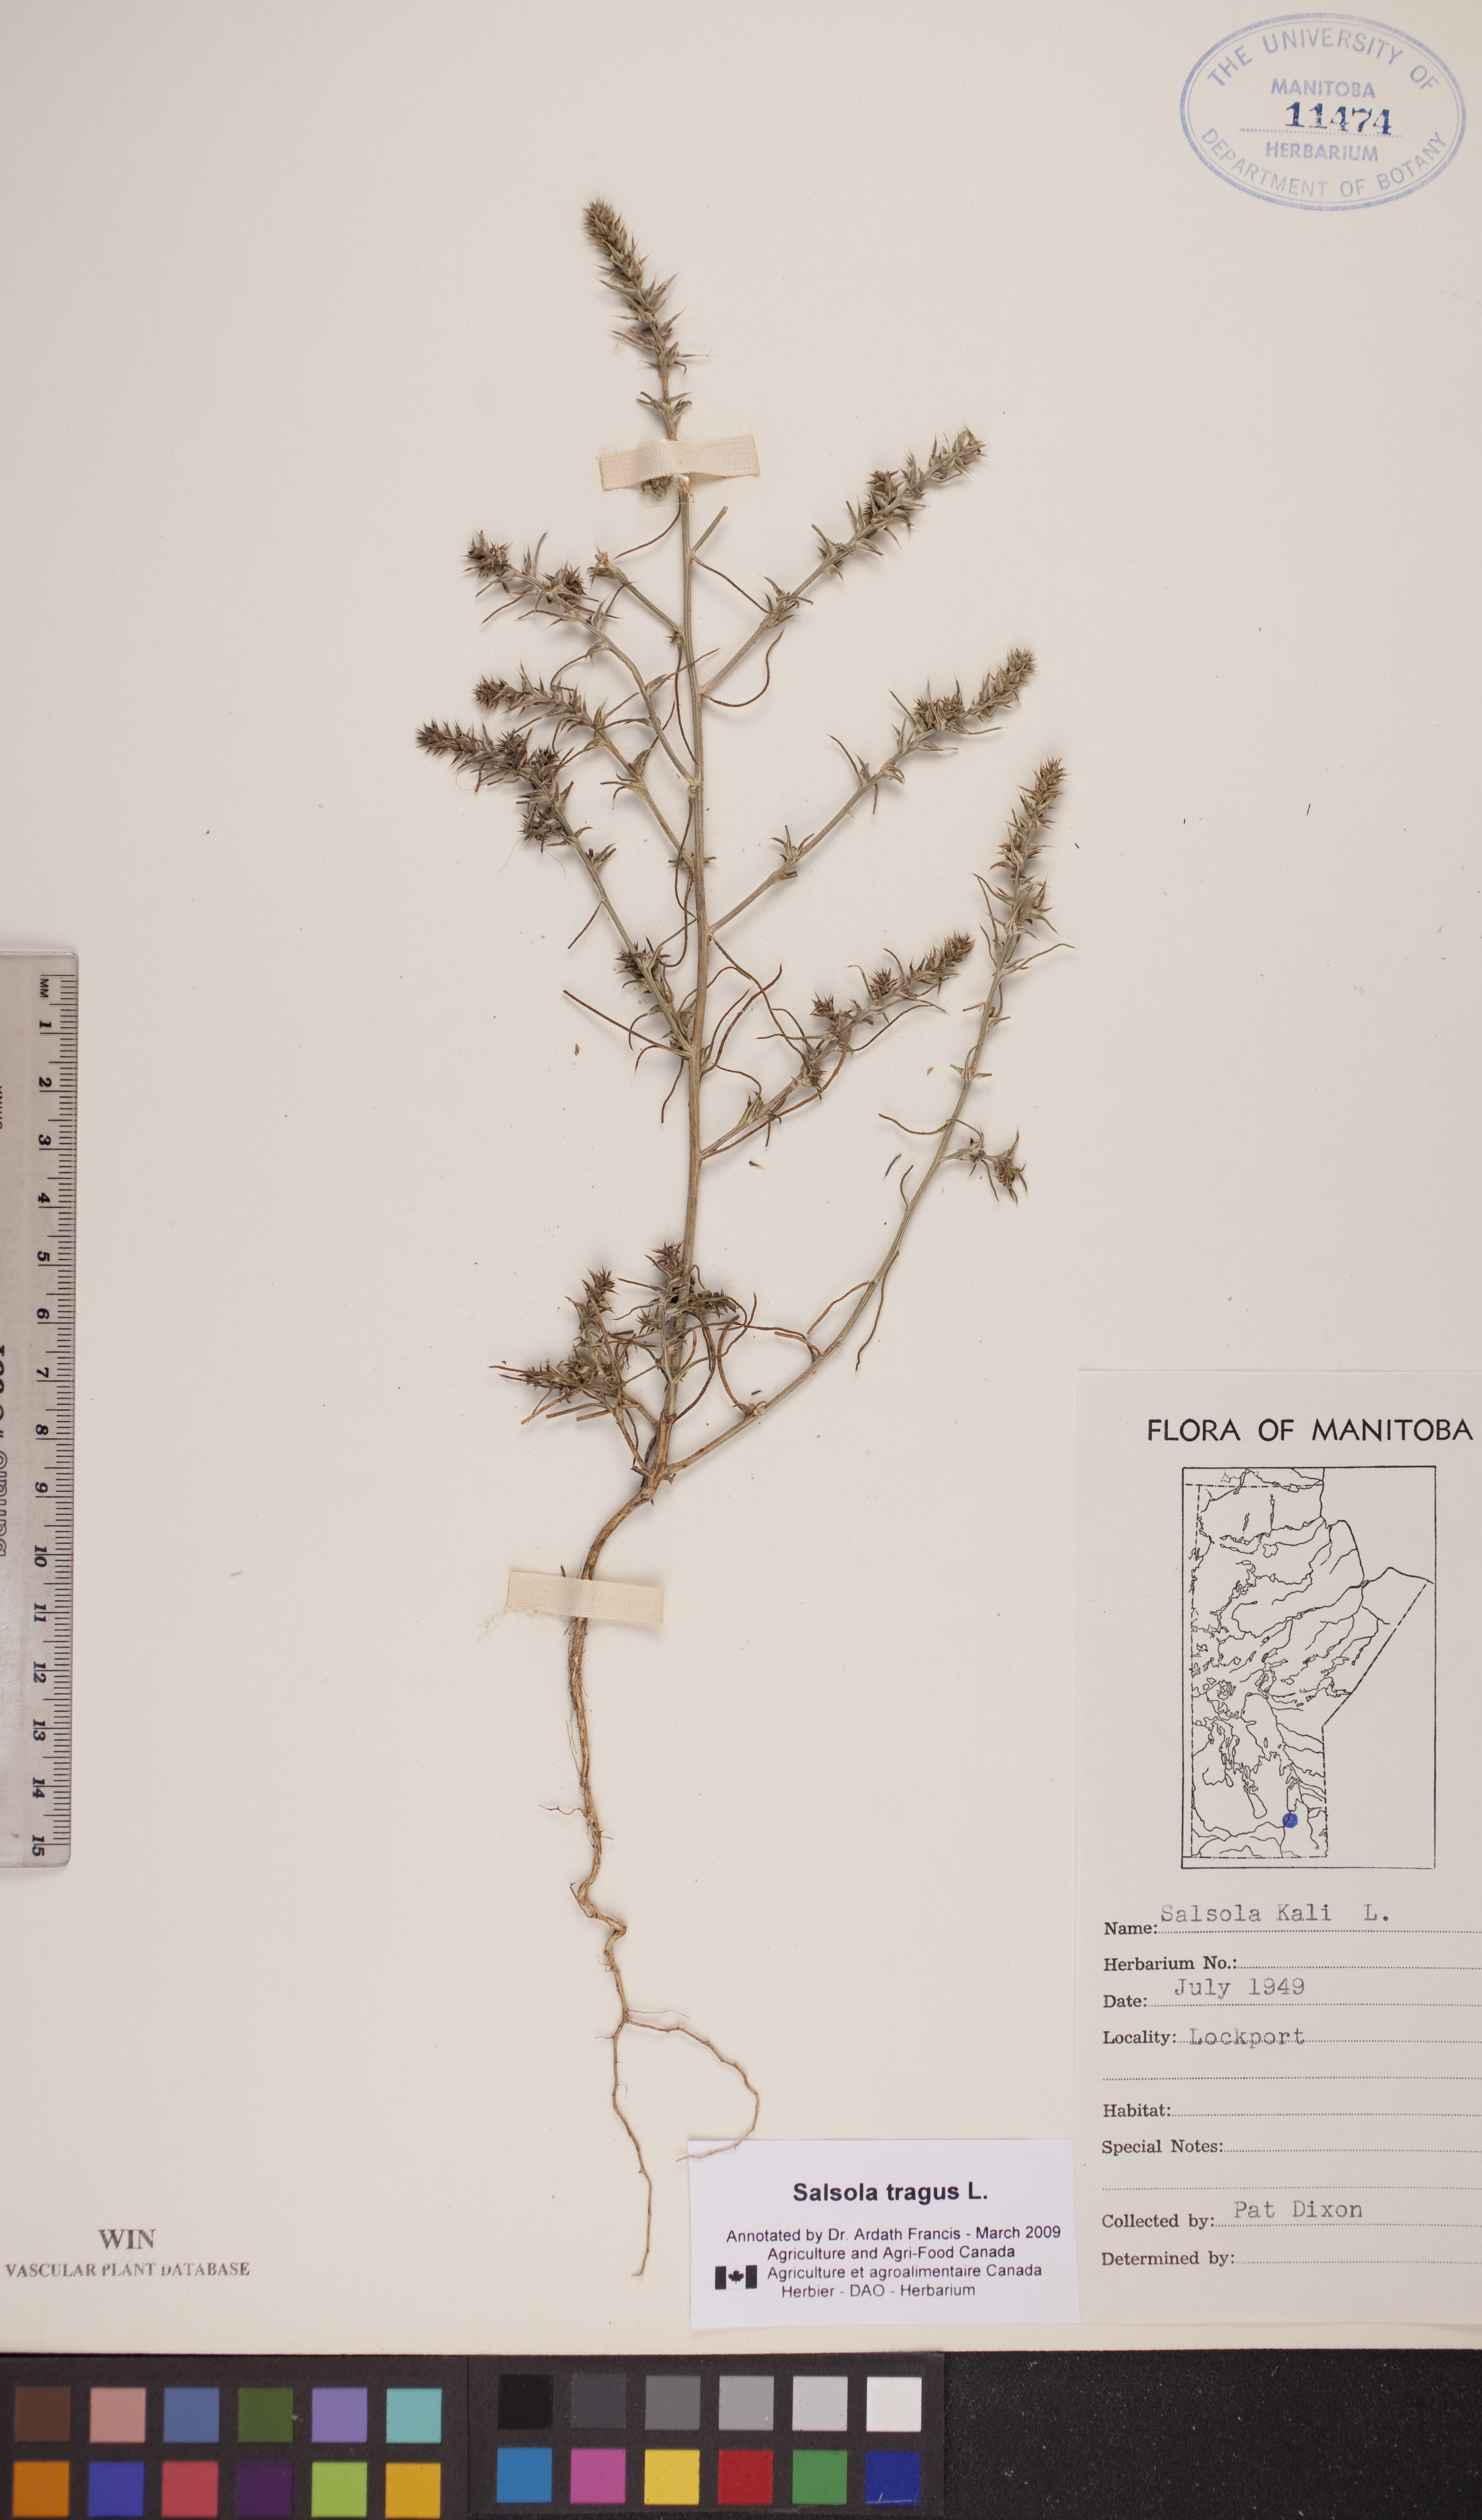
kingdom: Plantae
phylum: Tracheophyta
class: Magnoliopsida
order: Caryophyllales
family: Amaranthaceae
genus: Salsola
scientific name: Salsola tragus
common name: Prickly russian thistle
